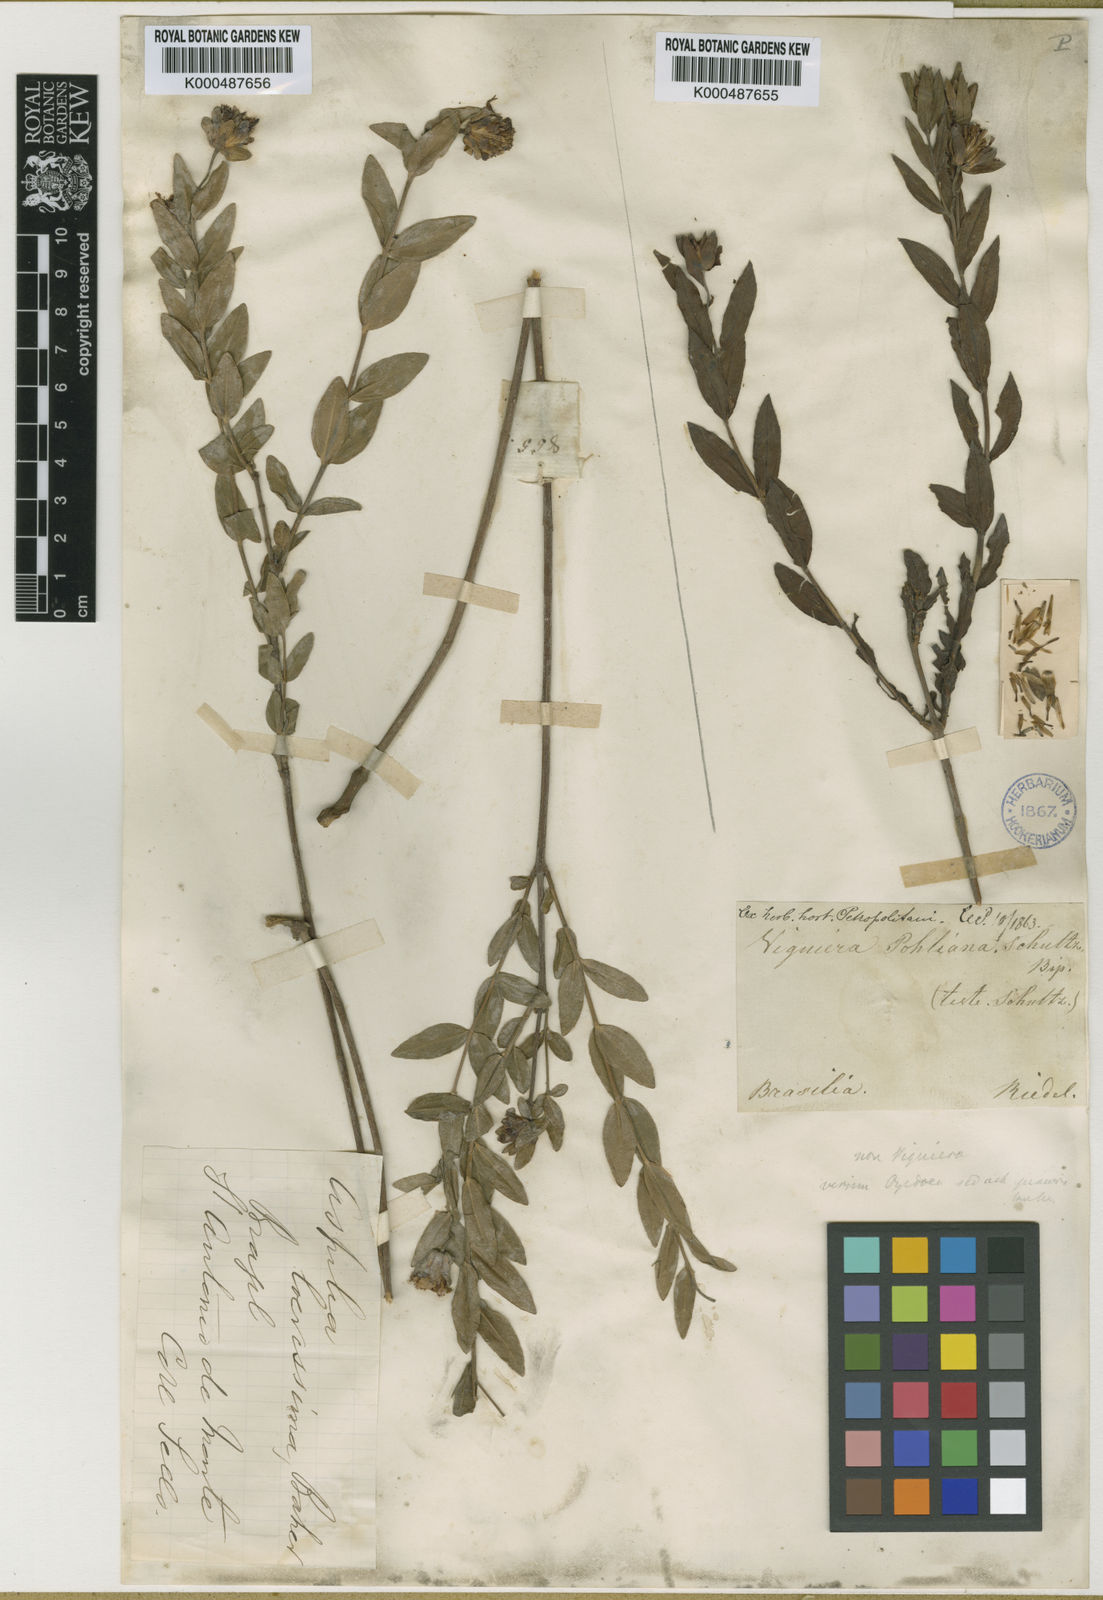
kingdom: Plantae
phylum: Tracheophyta
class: Magnoliopsida
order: Asterales
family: Asteraceae
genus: Wedelia
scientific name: Wedelia laevissima
